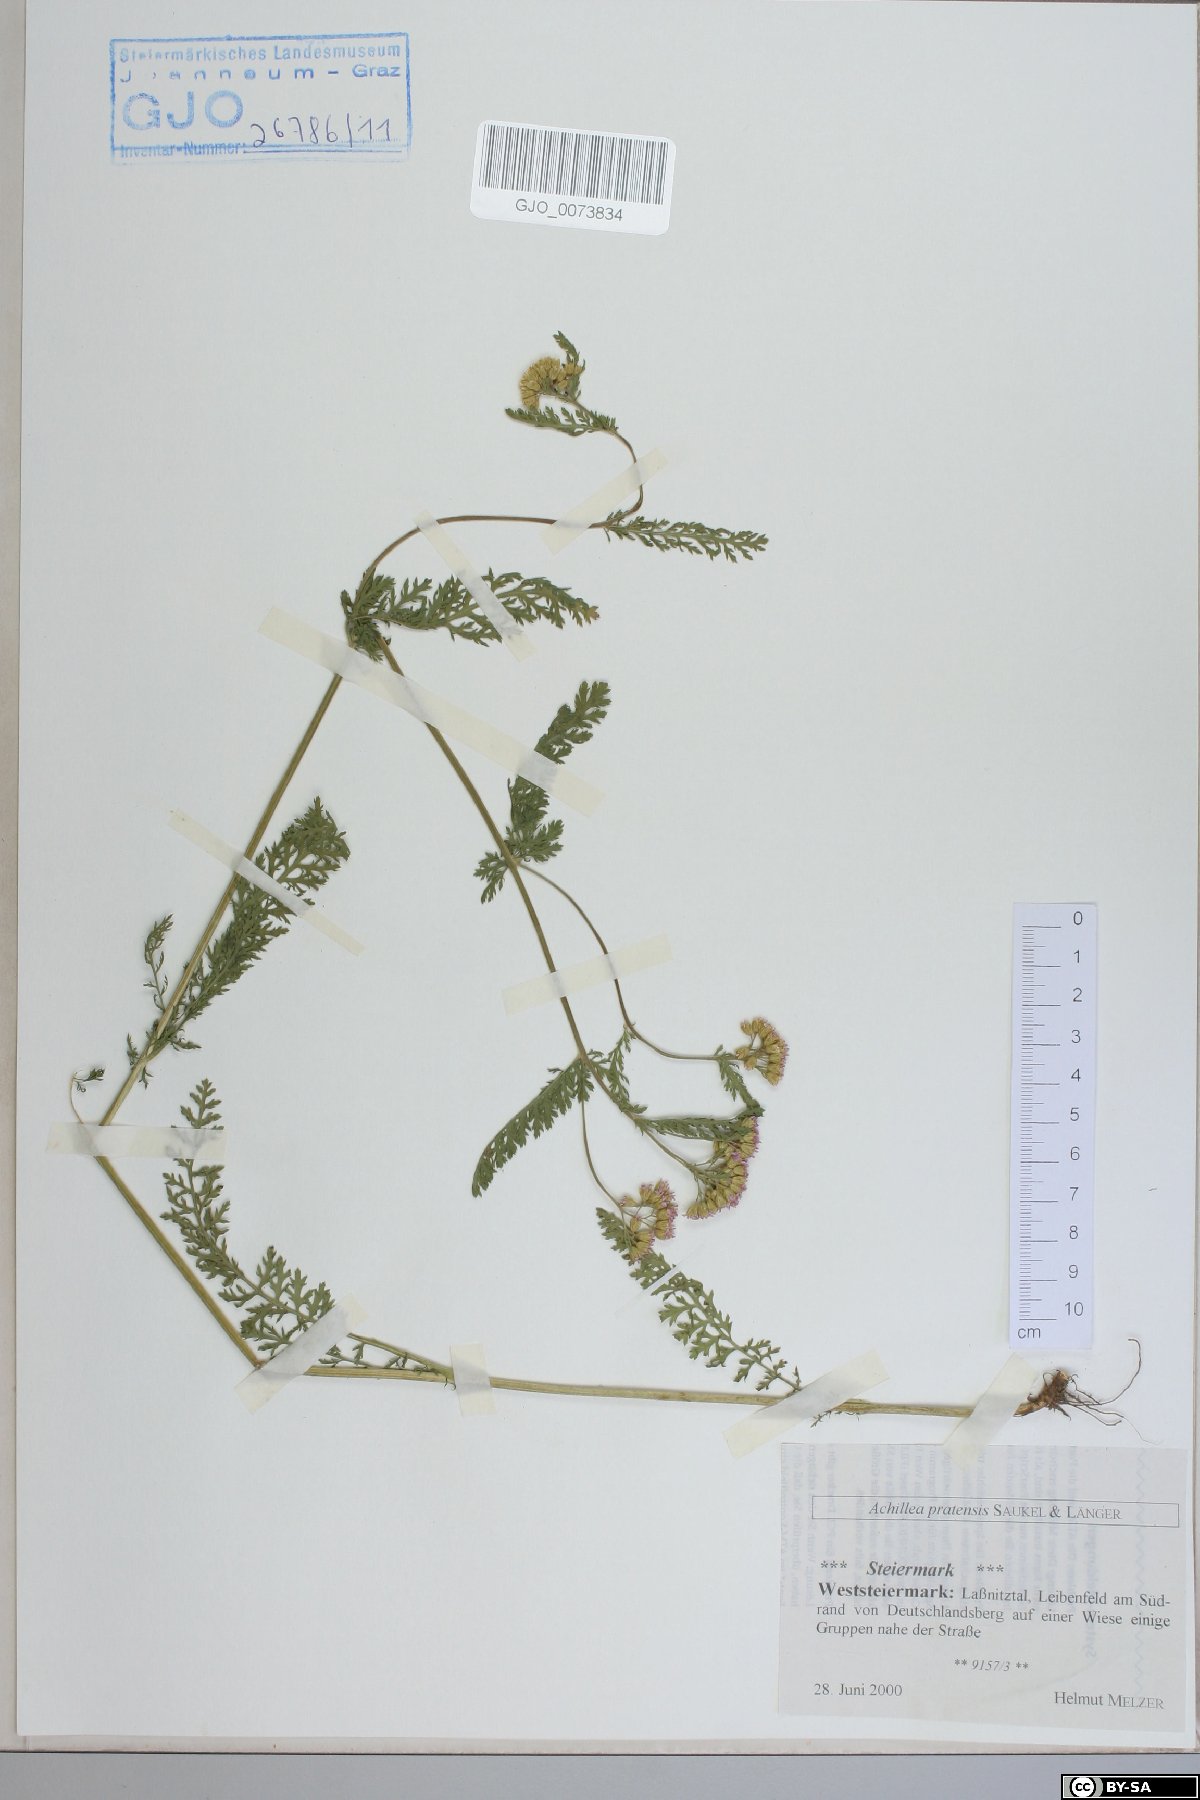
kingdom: Plantae
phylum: Tracheophyta
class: Magnoliopsida
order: Asterales
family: Asteraceae
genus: Achillea
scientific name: Achillea pratensis
